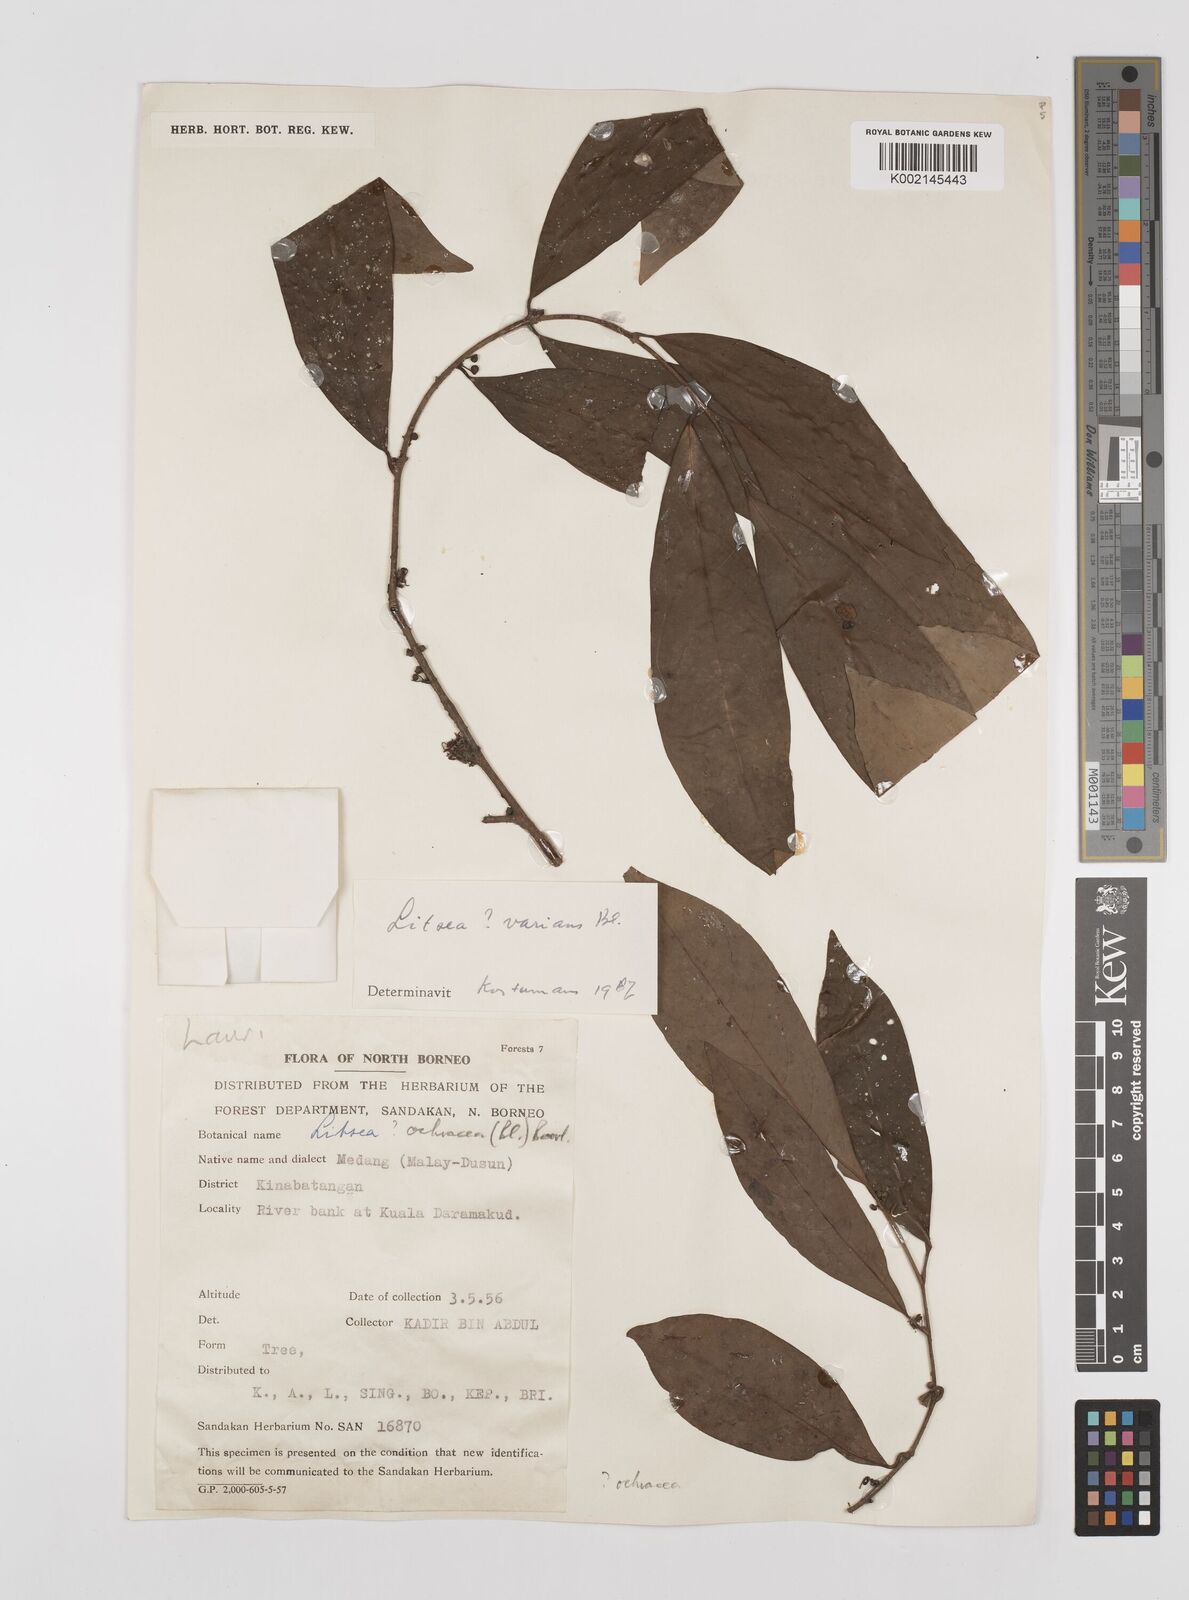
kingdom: Plantae
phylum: Tracheophyta
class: Magnoliopsida
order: Laurales
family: Lauraceae
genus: Litsea
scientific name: Litsea
